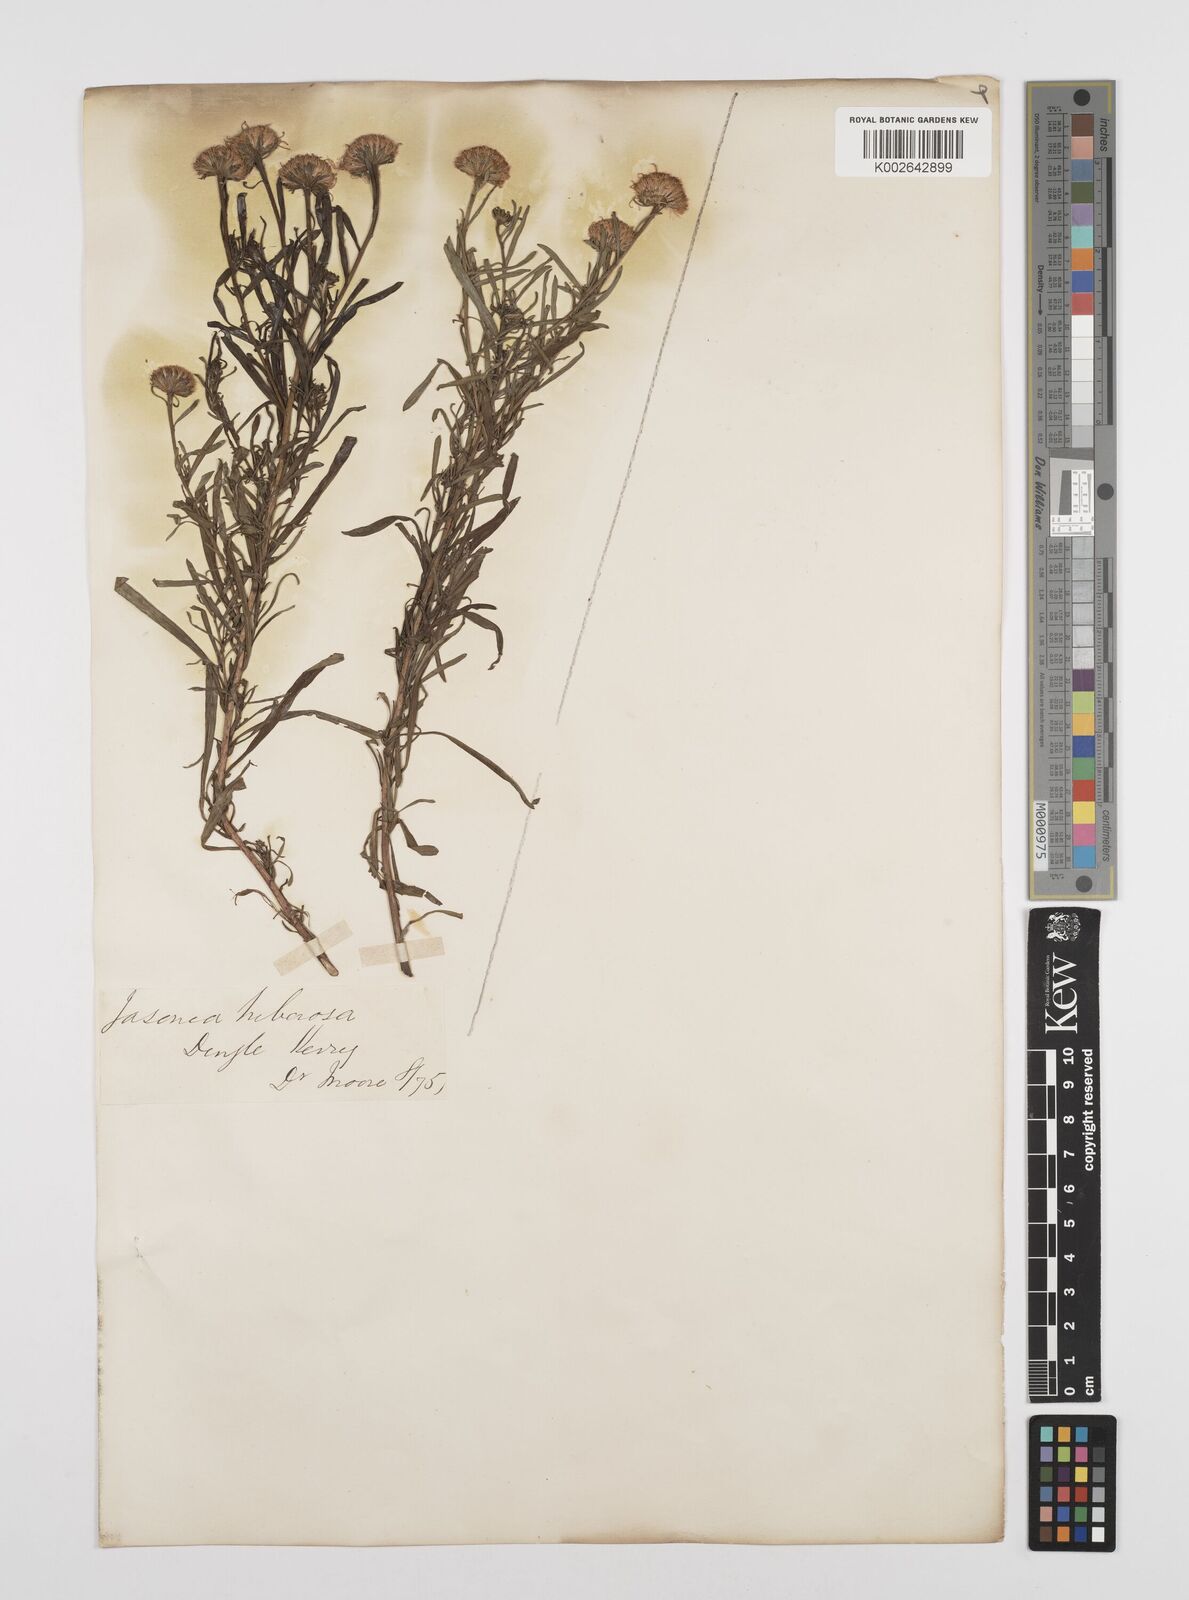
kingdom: Plantae
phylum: Tracheophyta
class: Magnoliopsida
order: Asterales
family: Asteraceae
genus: Jasonia
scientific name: Jasonia tuberosa
